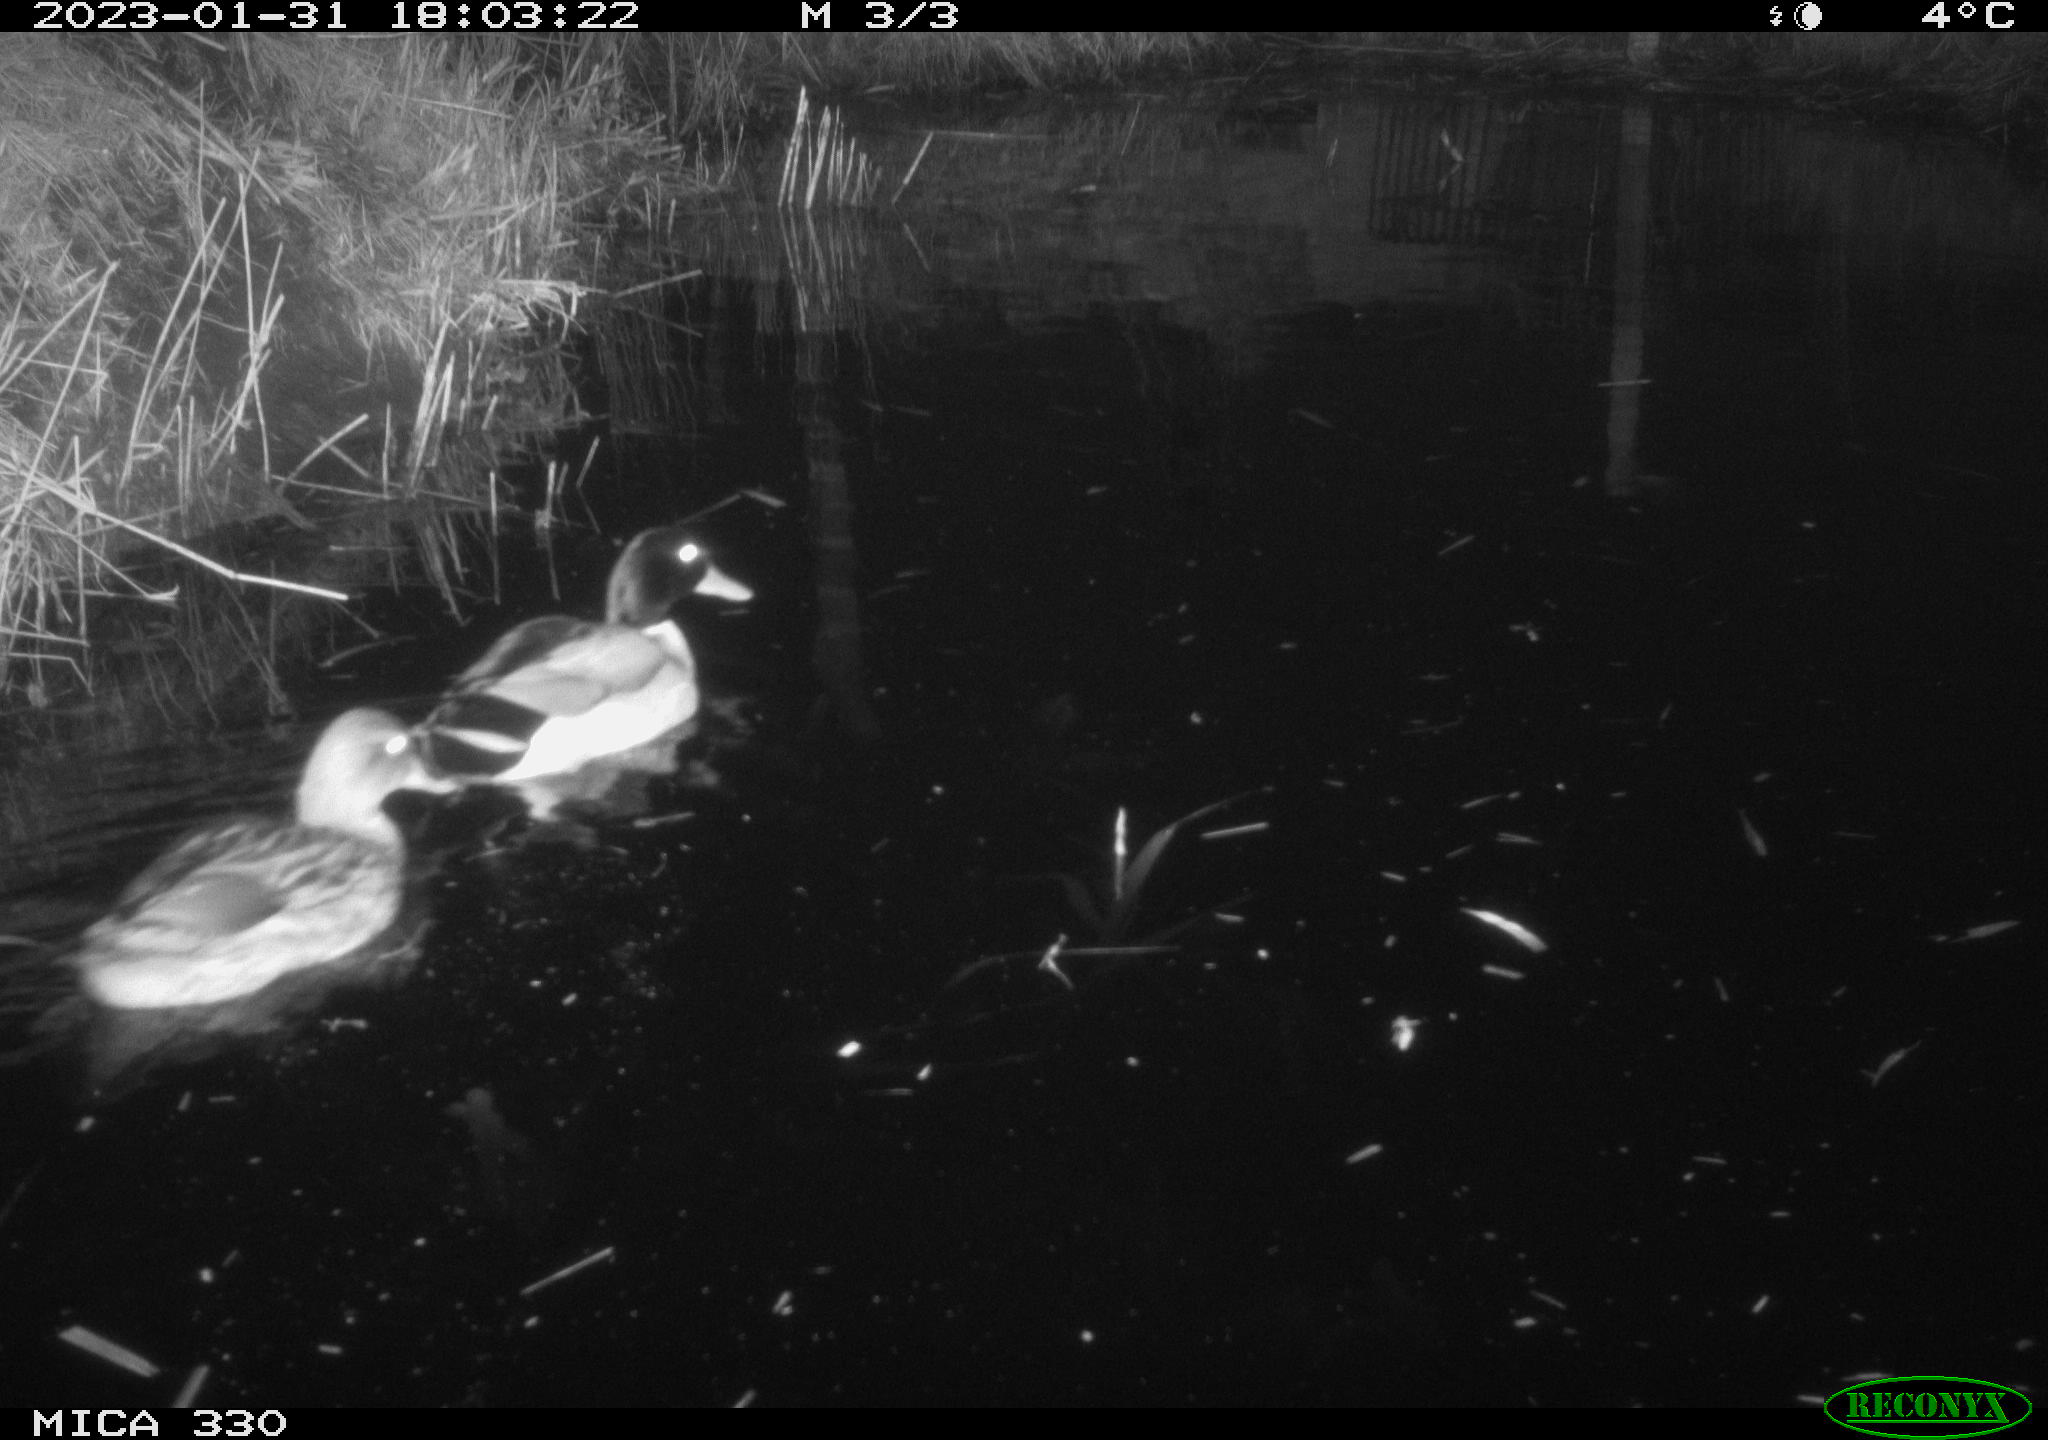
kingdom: Animalia
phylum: Chordata
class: Aves
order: Anseriformes
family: Anatidae
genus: Anas
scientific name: Anas
